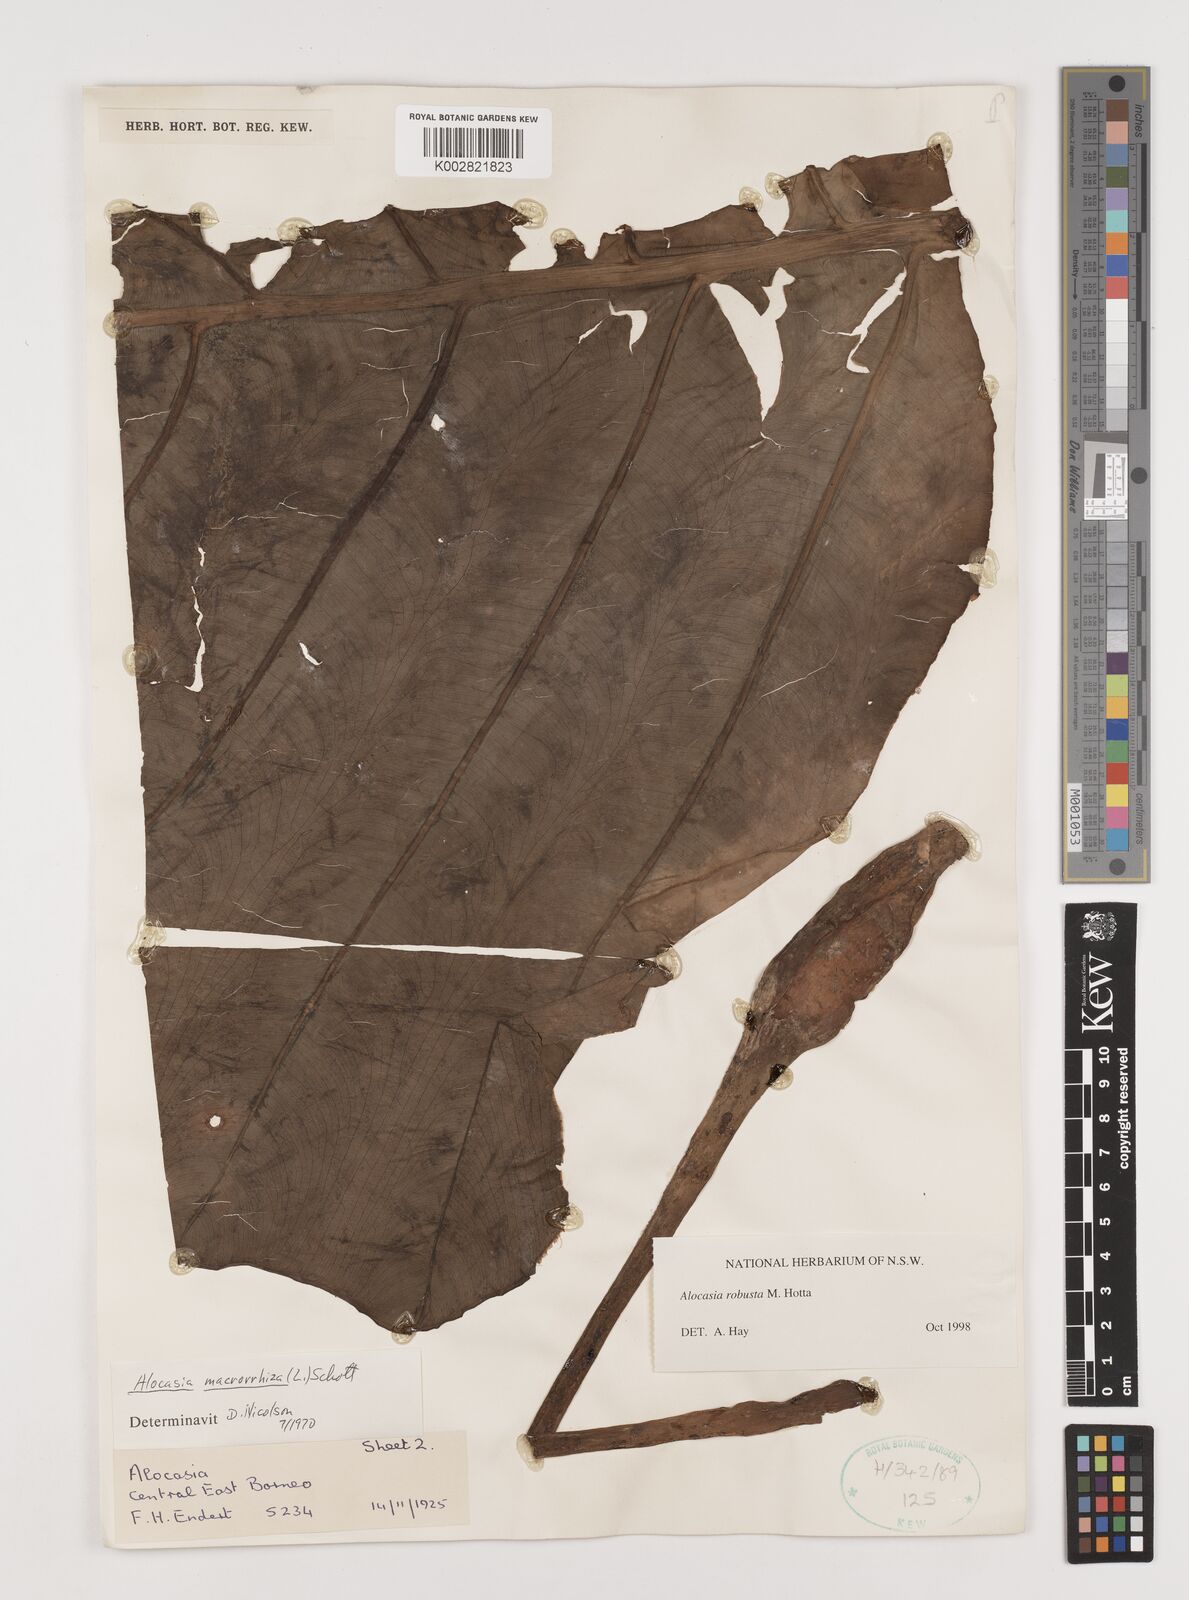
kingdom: Plantae
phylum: Tracheophyta
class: Liliopsida
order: Alismatales
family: Araceae
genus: Alocasia
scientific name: Alocasia robusta
